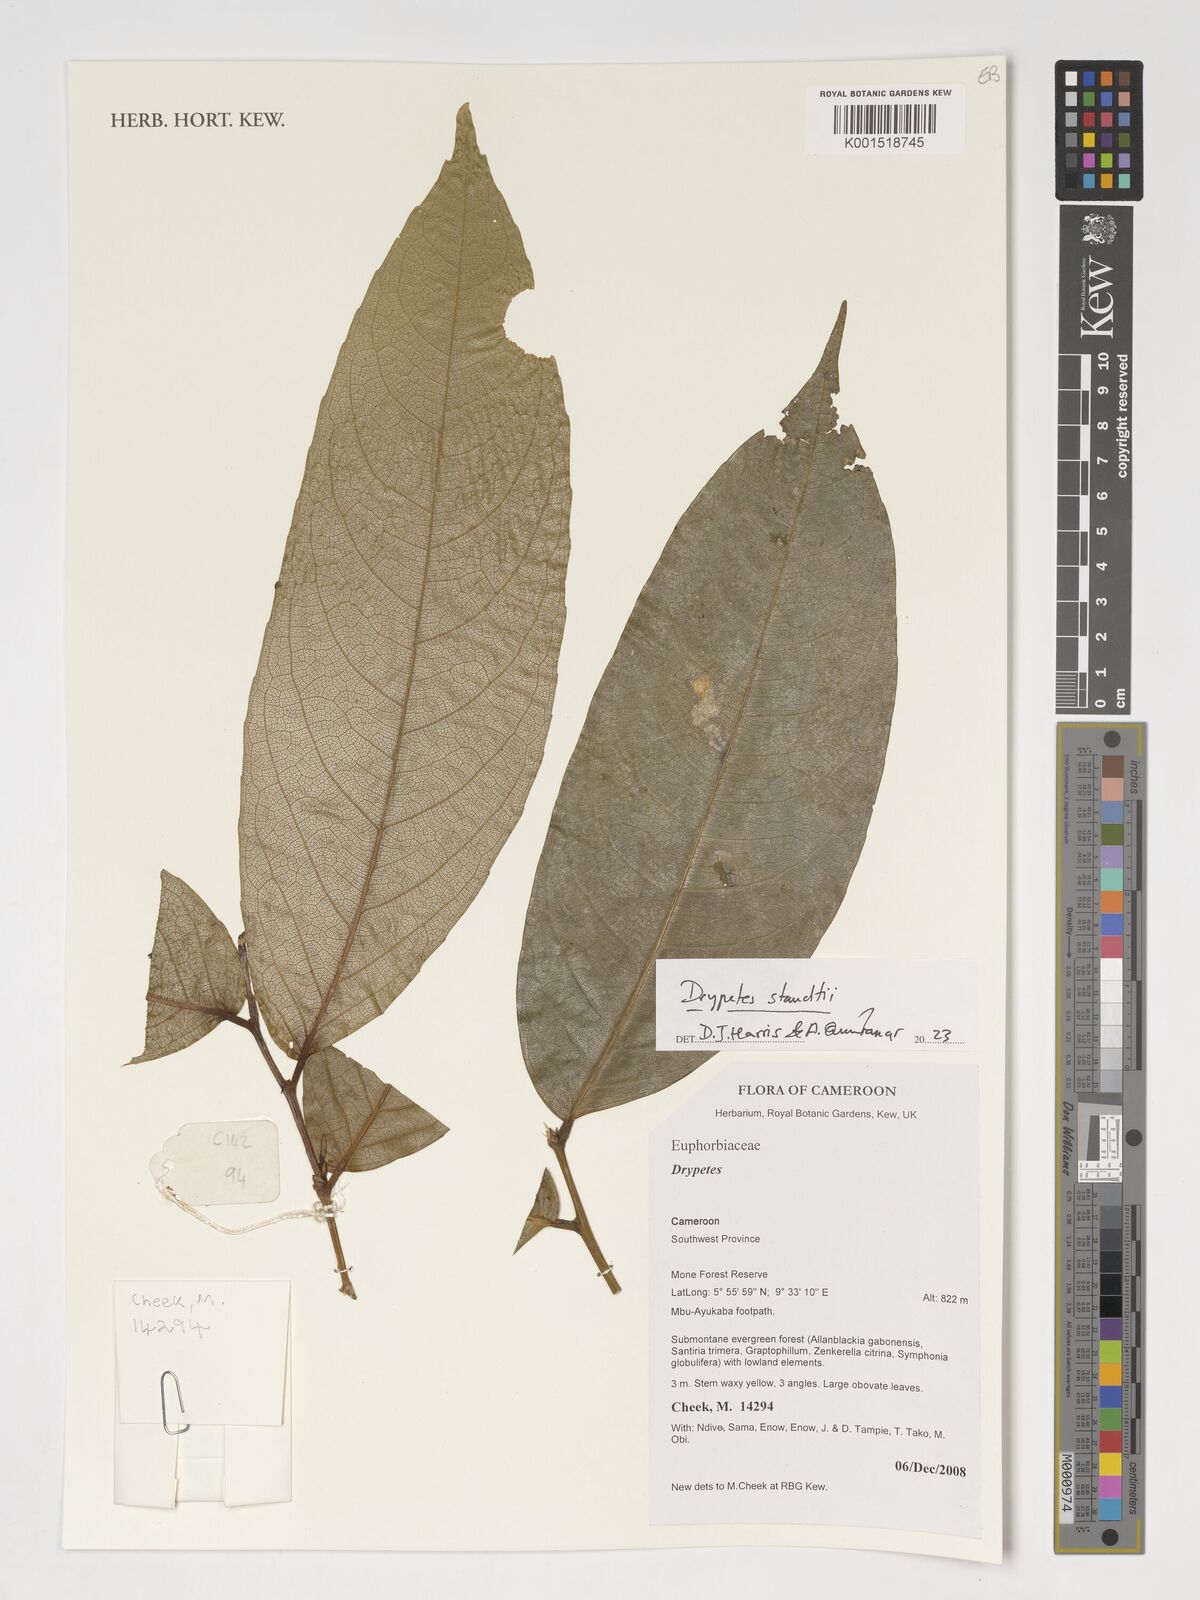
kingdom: Plantae
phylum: Tracheophyta
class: Magnoliopsida
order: Cucurbitales
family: Anisophylleaceae
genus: Anisophyllea
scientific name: Anisophyllea sororia
